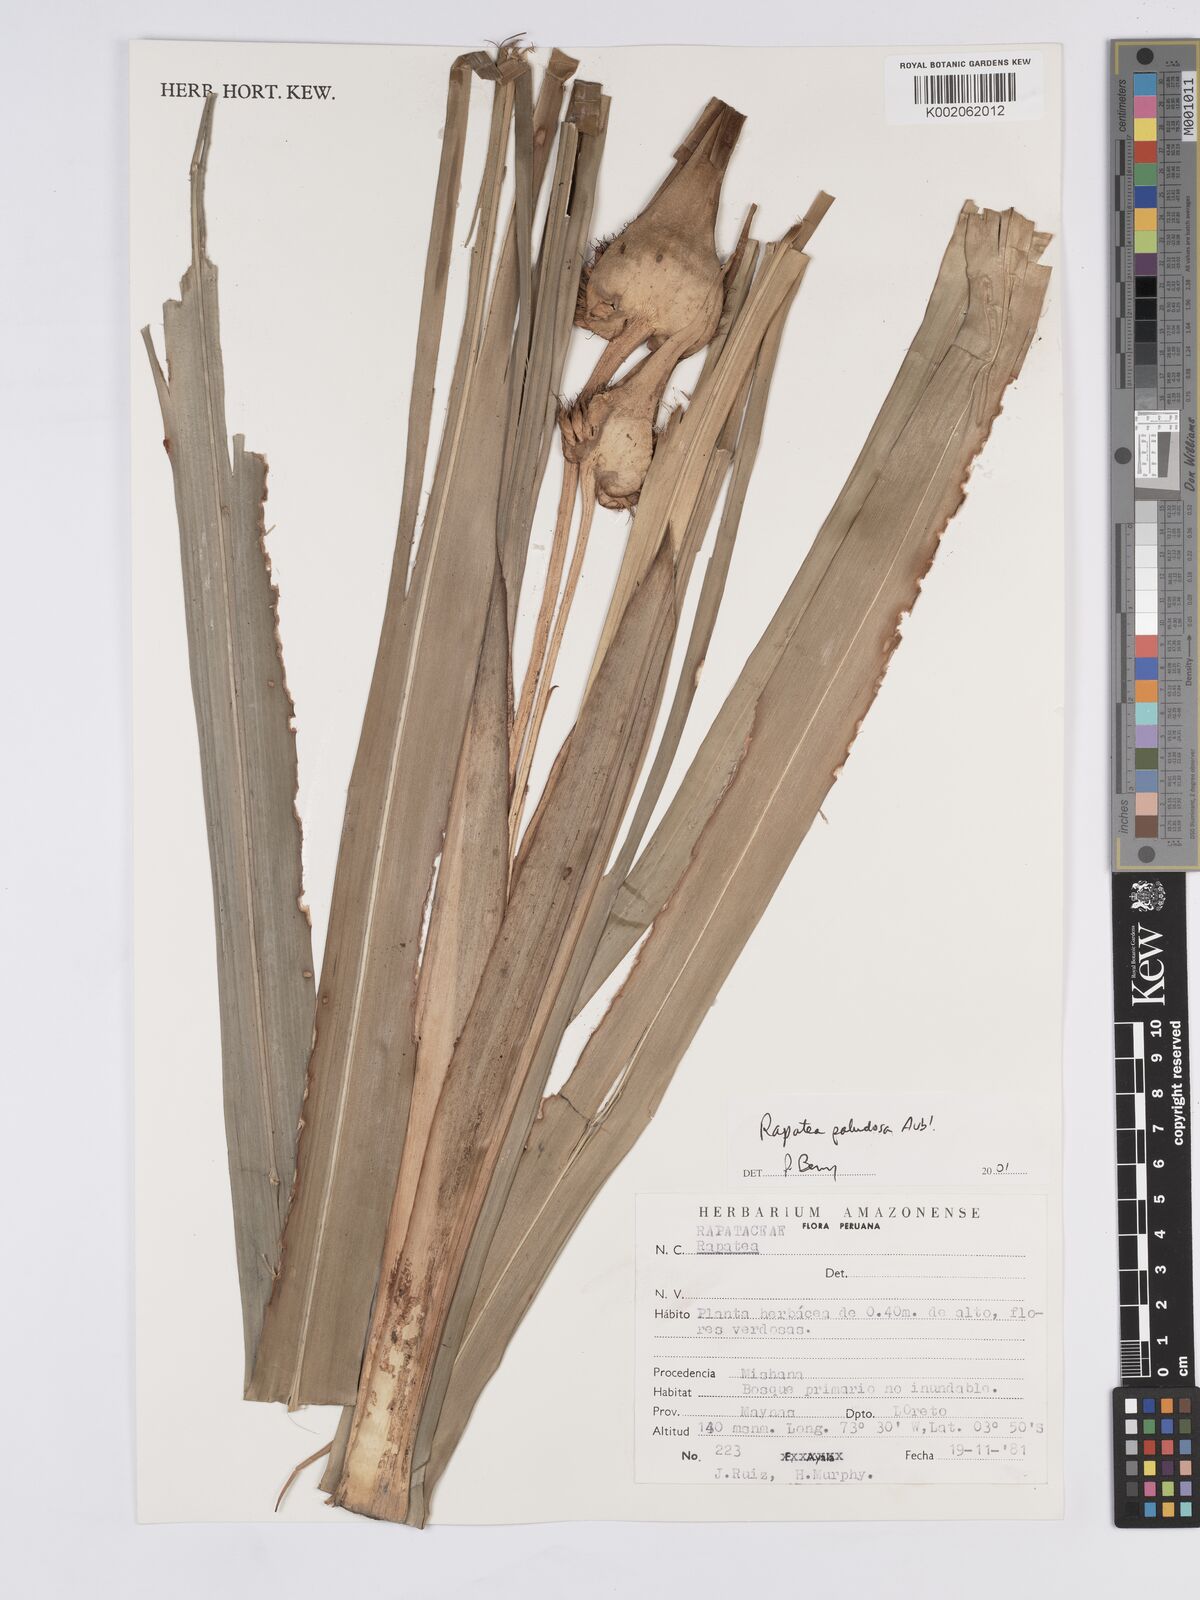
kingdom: Plantae
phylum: Tracheophyta
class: Liliopsida
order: Poales
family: Rapateaceae
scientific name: Rapateaceae
